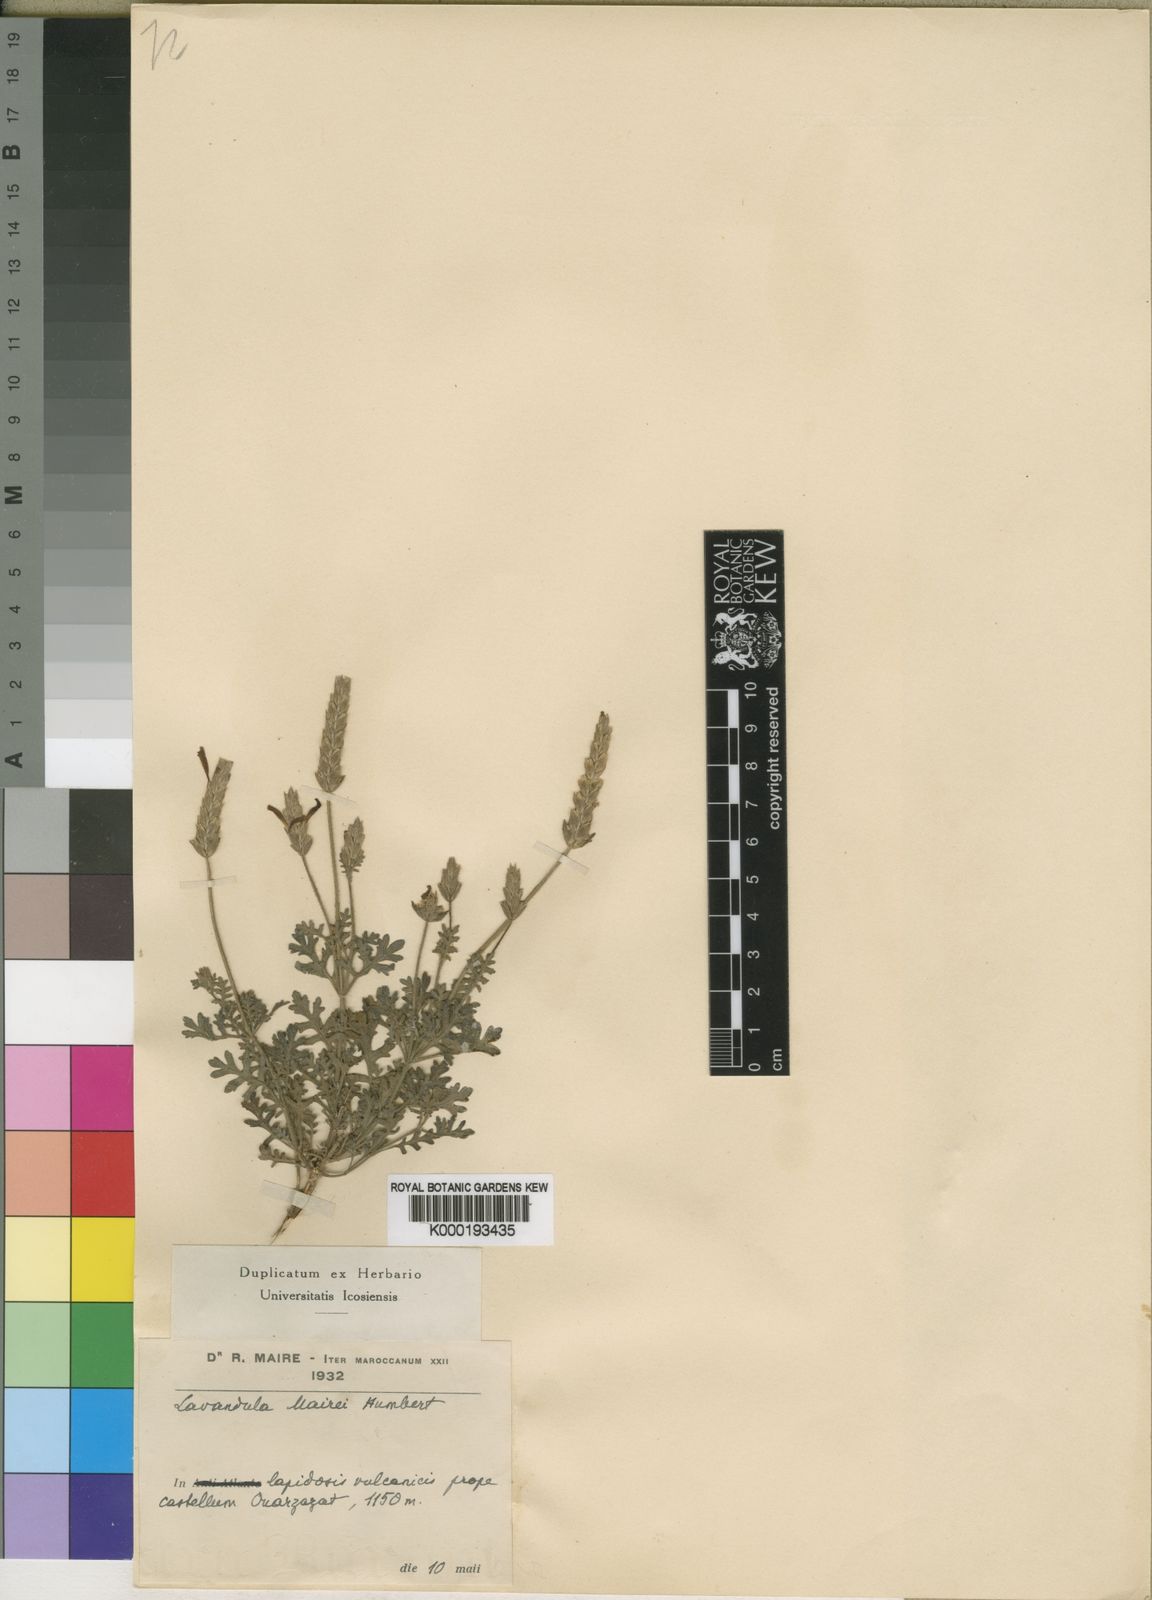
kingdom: Plantae
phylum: Tracheophyta
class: Magnoliopsida
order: Lamiales
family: Lamiaceae
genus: Lavandula
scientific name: Lavandula mairei
